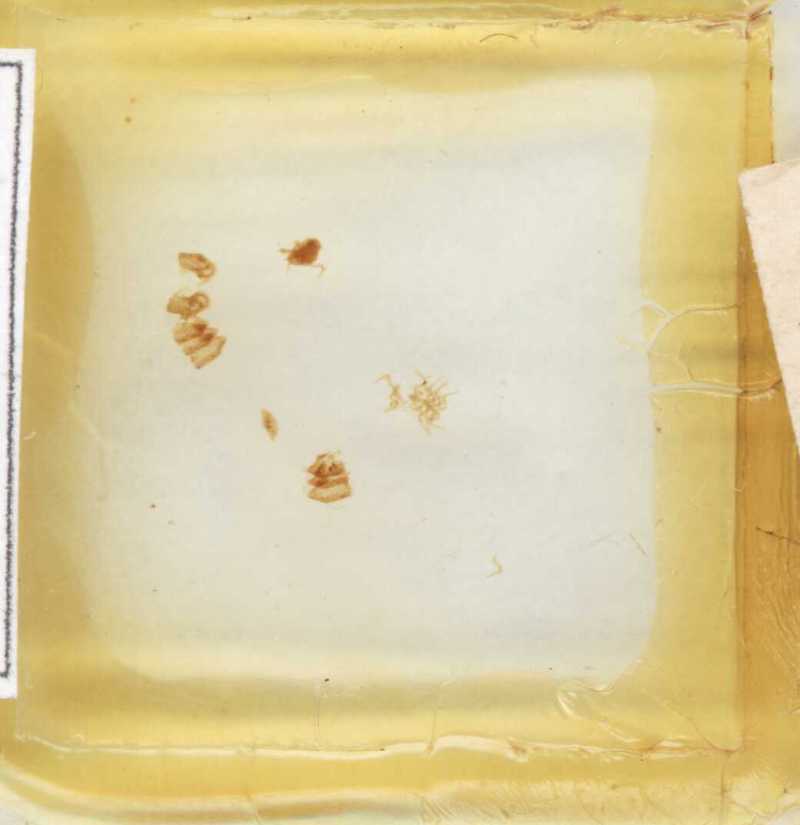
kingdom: Animalia
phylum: Arthropoda
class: Diplopoda
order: Glomerida
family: Glomeridae
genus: Gervaisia
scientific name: Gervaisia gibbula
